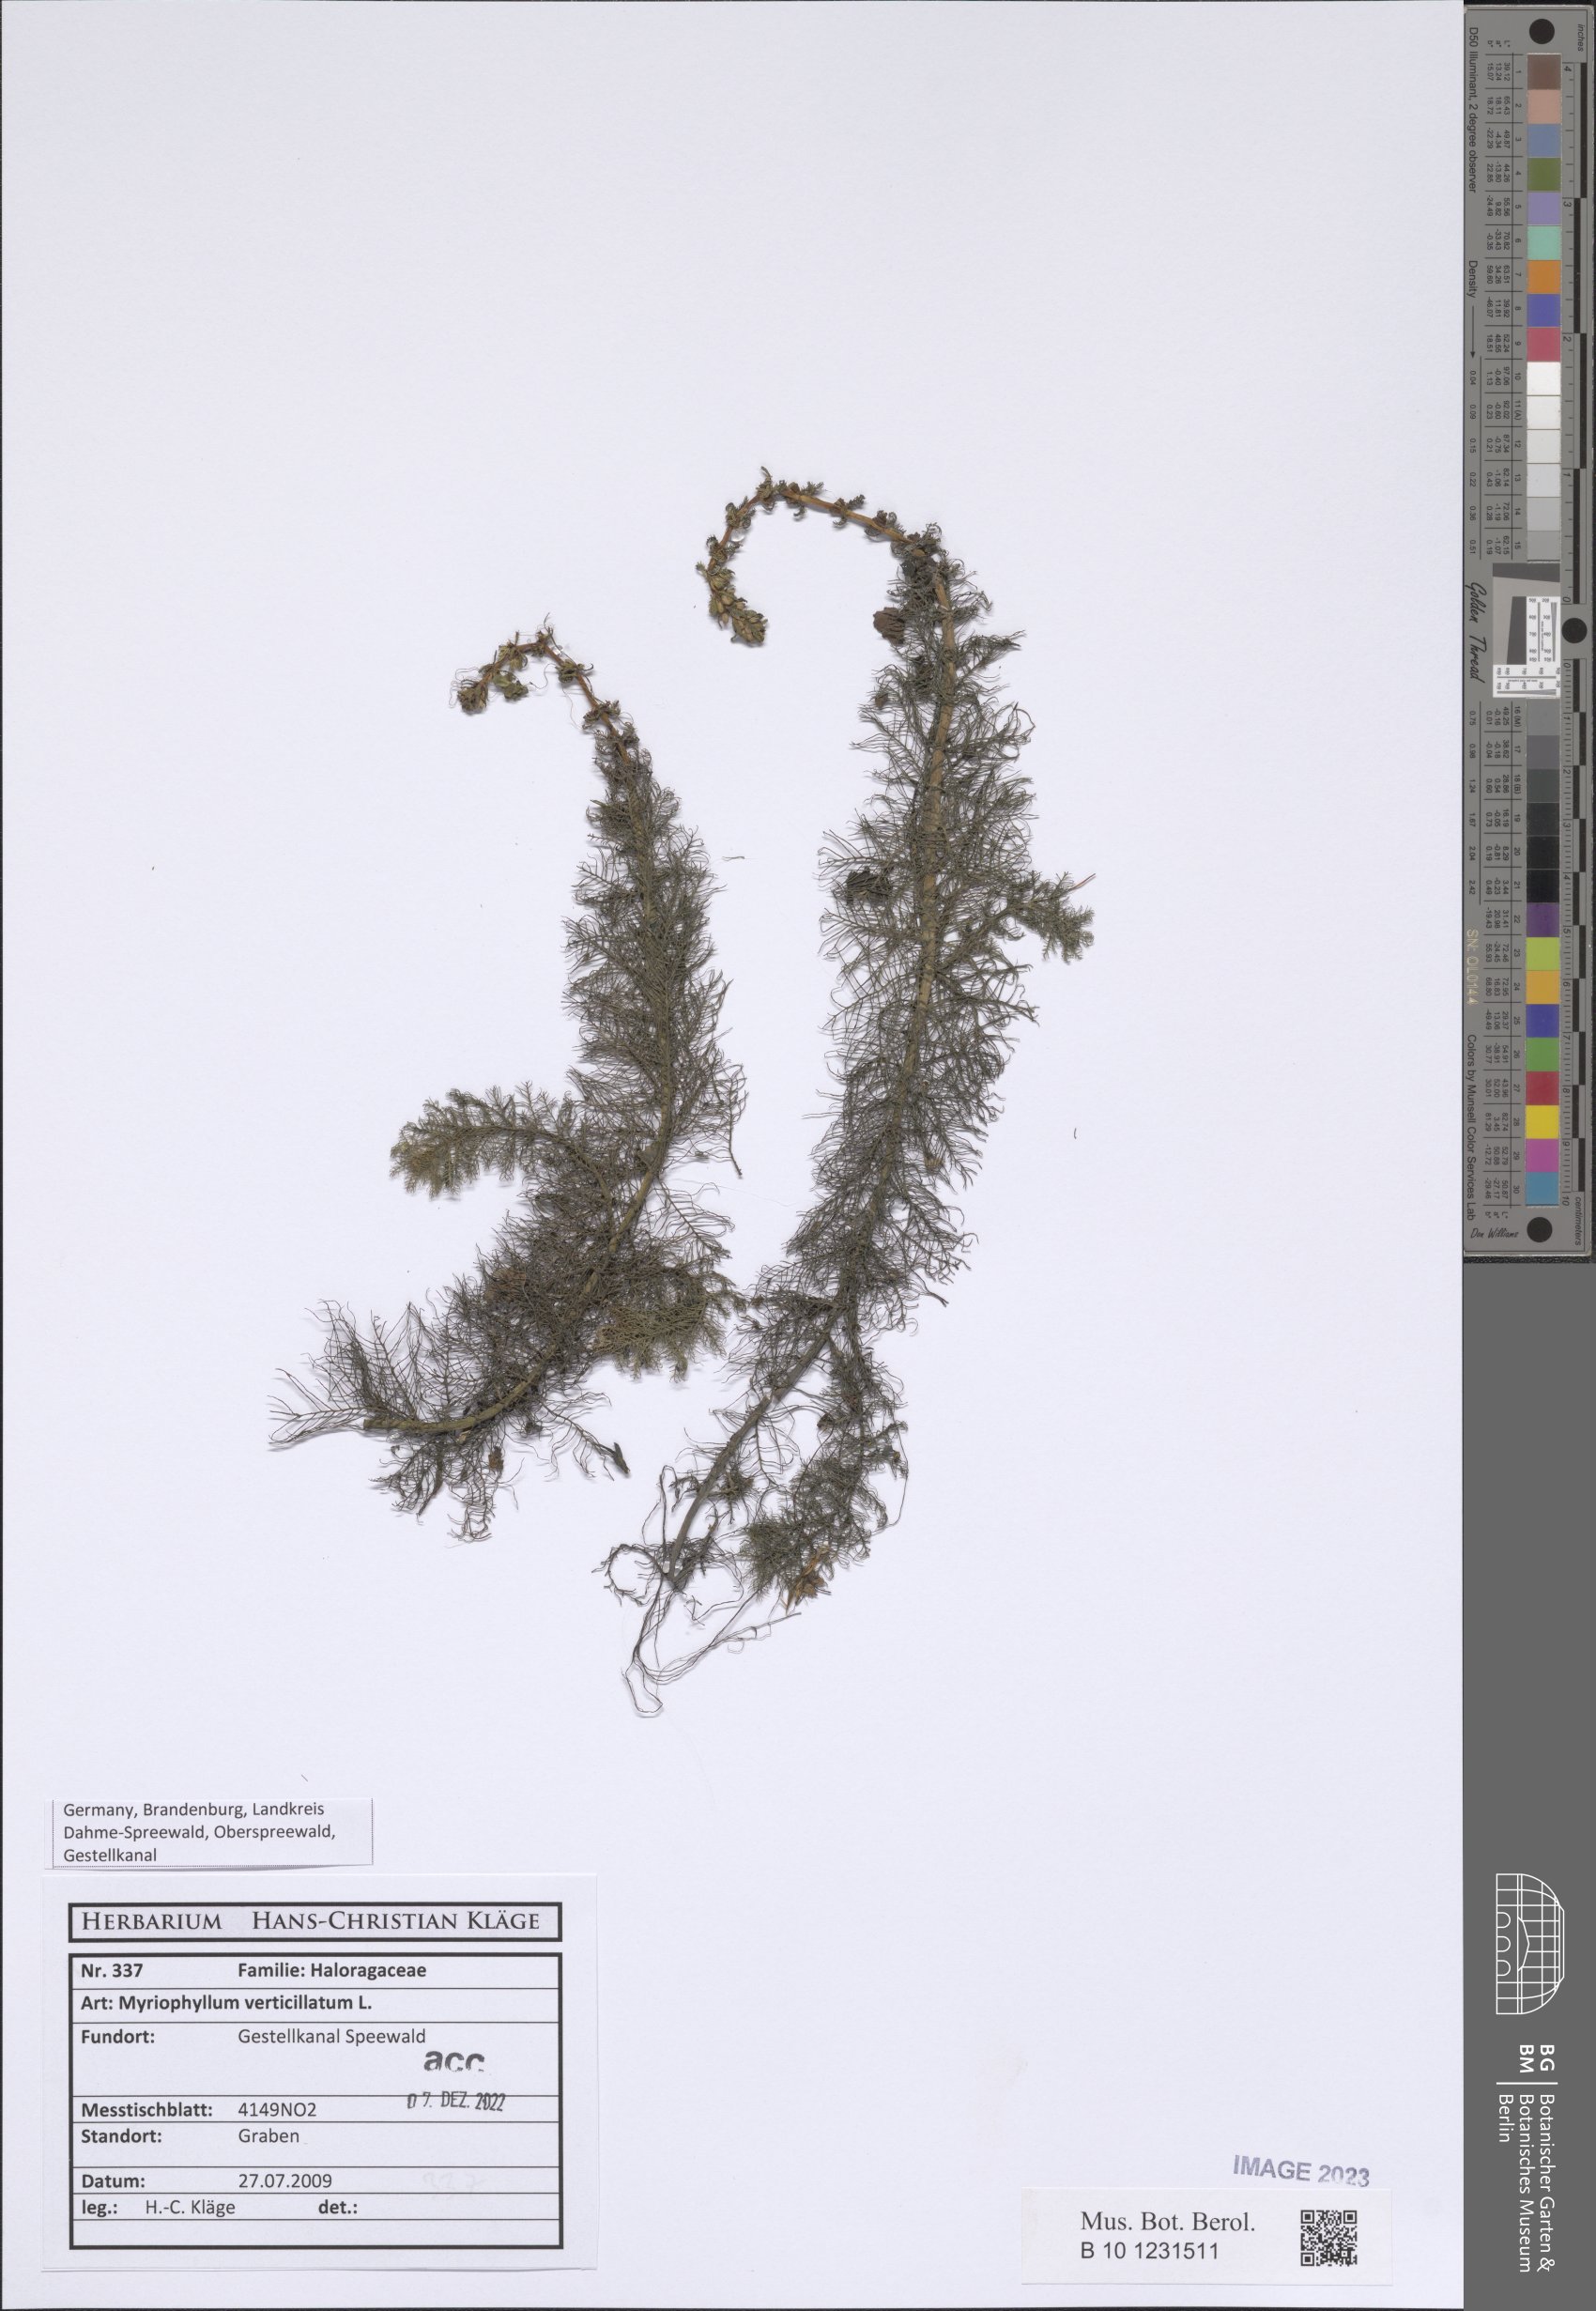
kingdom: Plantae
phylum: Tracheophyta
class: Magnoliopsida
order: Saxifragales
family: Haloragaceae
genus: Myriophyllum
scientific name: Myriophyllum verticillatum
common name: Whorled water-milfoil
